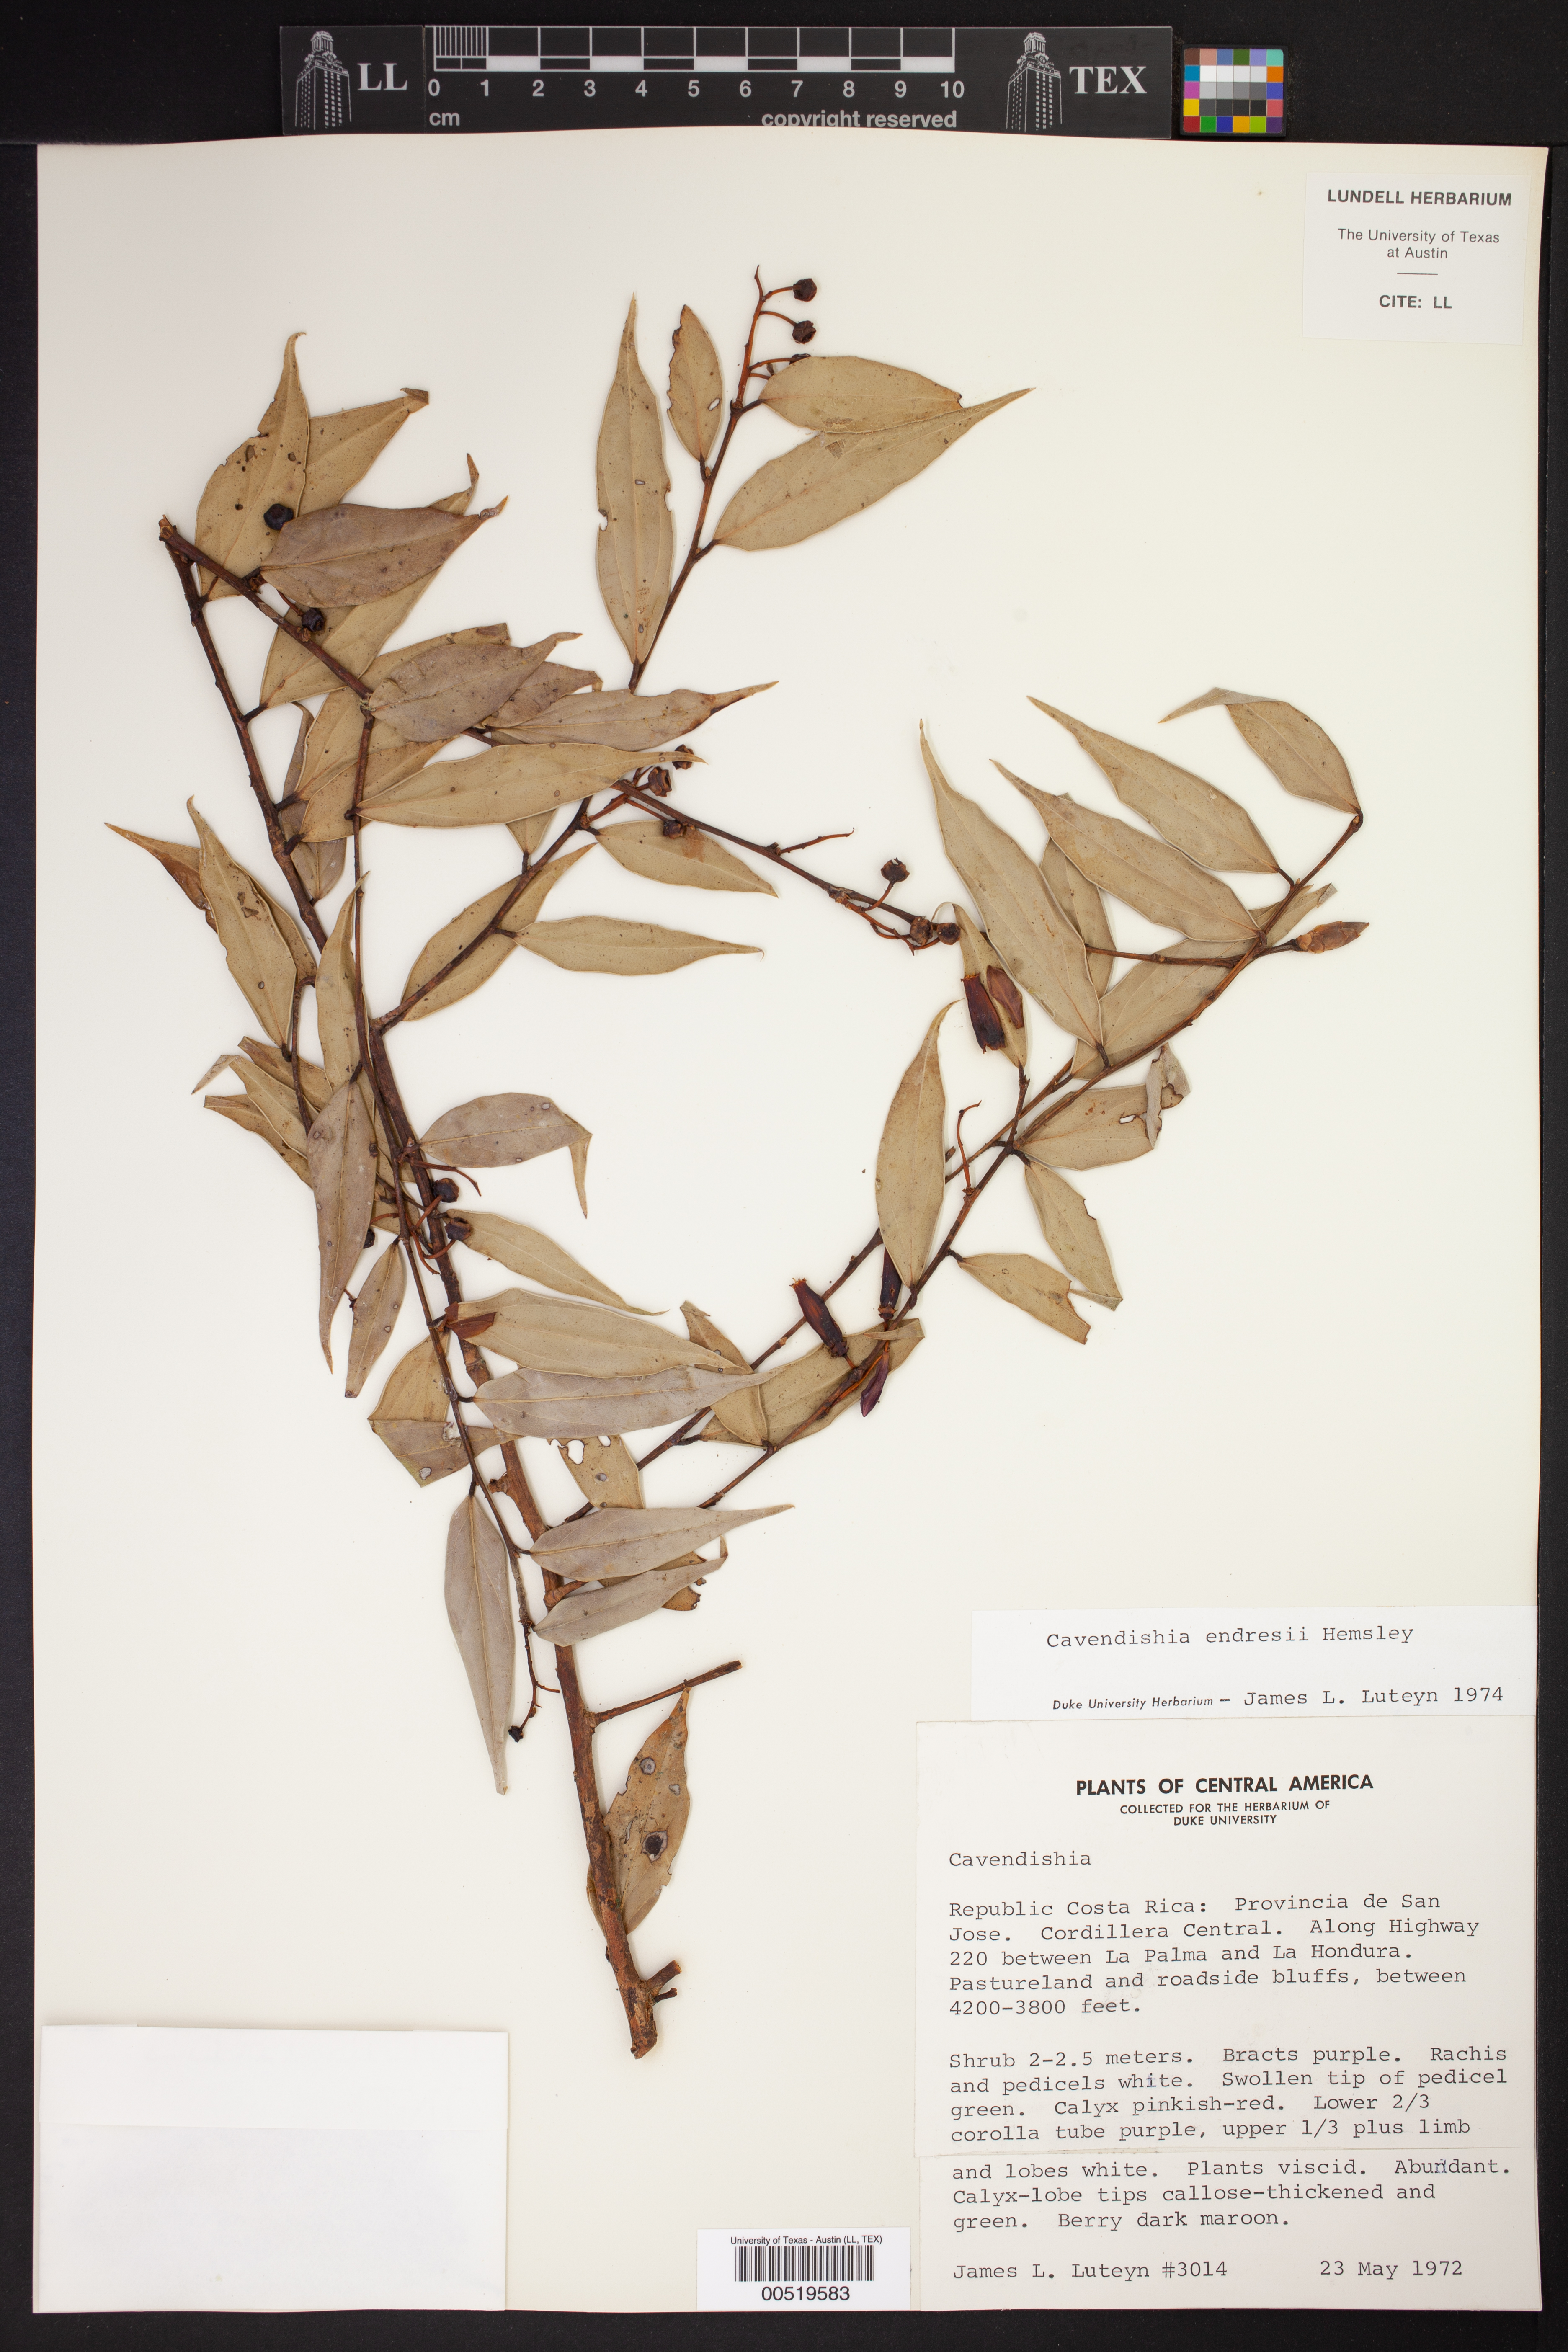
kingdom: Plantae
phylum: Tracheophyta
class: Magnoliopsida
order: Ericales
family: Ericaceae
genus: Cavendishia
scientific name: Cavendishia endresii
